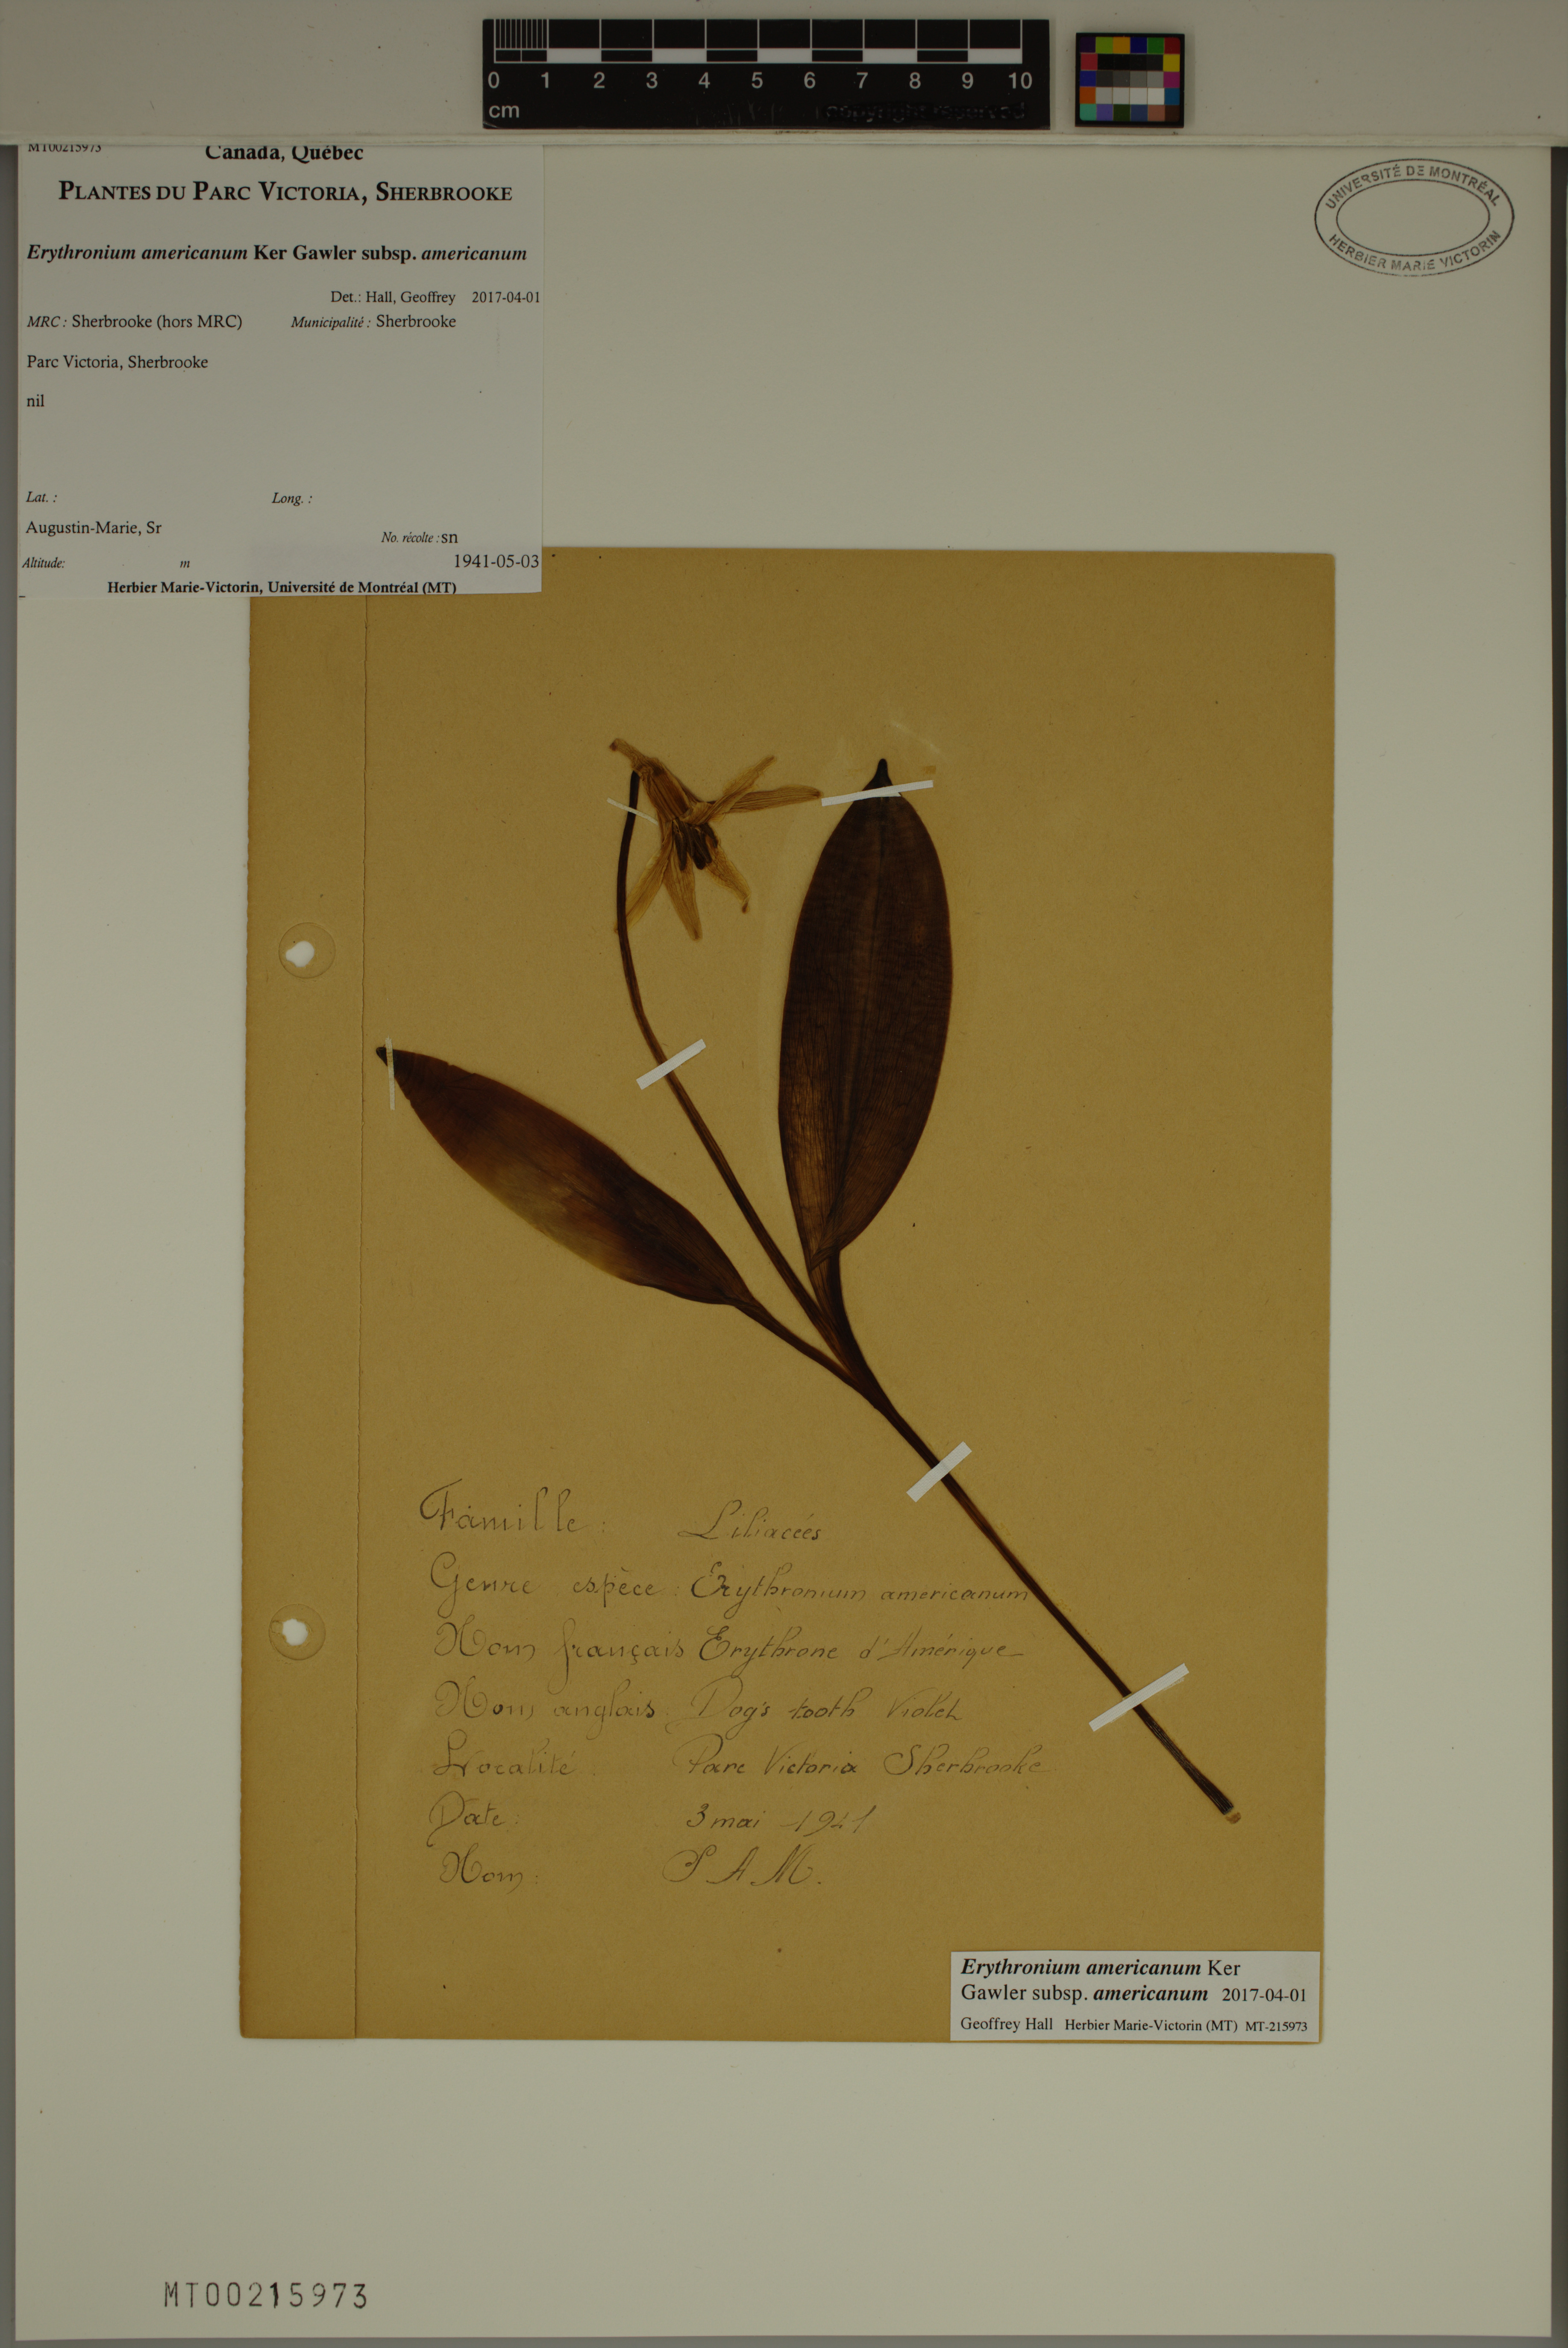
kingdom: Plantae
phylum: Tracheophyta
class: Liliopsida
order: Liliales
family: Liliaceae
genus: Erythronium
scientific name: Erythronium americanum
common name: Yellow adder's-tongue
